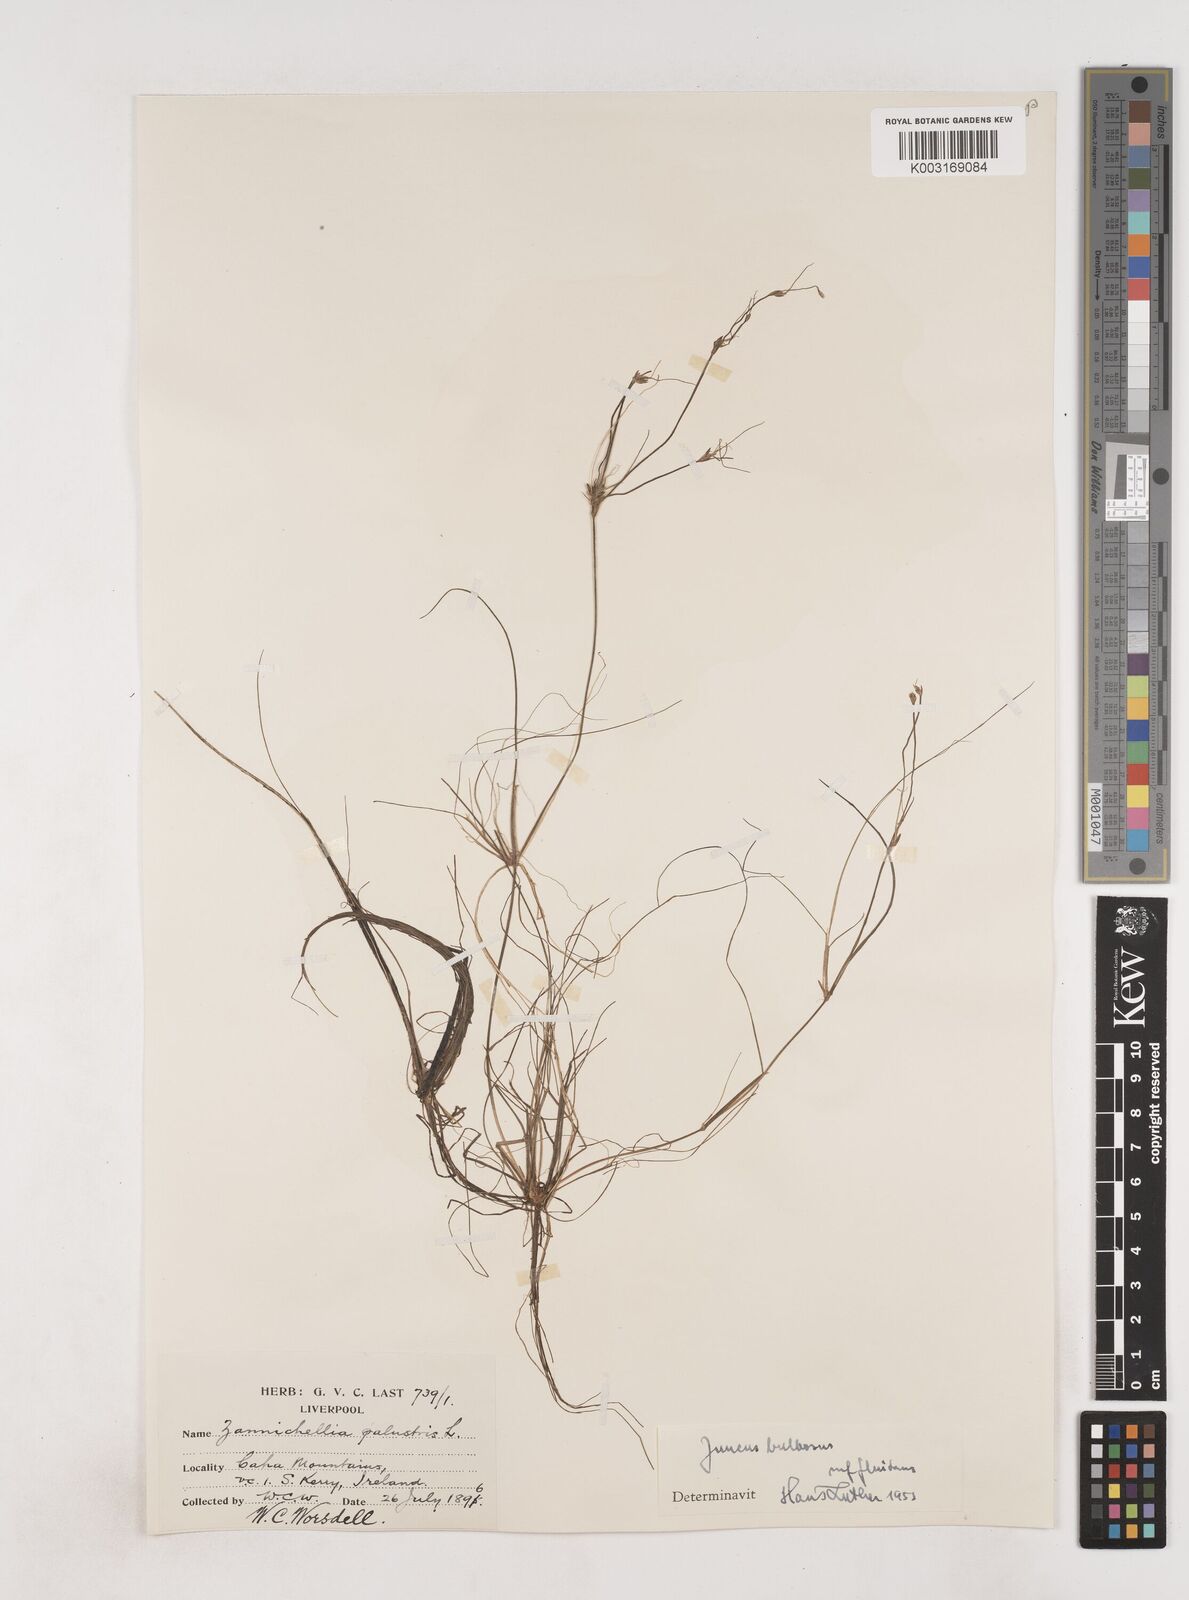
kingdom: Plantae
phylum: Tracheophyta
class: Liliopsida
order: Poales
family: Juncaceae
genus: Juncus
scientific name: Juncus bulbosus
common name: Bulbous rush
